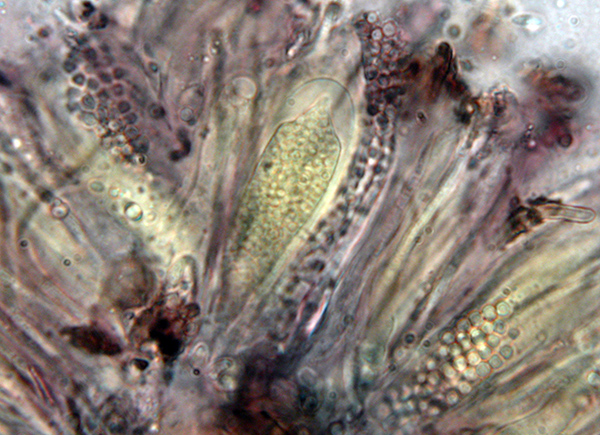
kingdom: Fungi
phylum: Ascomycota
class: Sareomycetes
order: Sareales
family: Sareaceae
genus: Sarea
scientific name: Sarea difformis
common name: mørk harpiksskive
